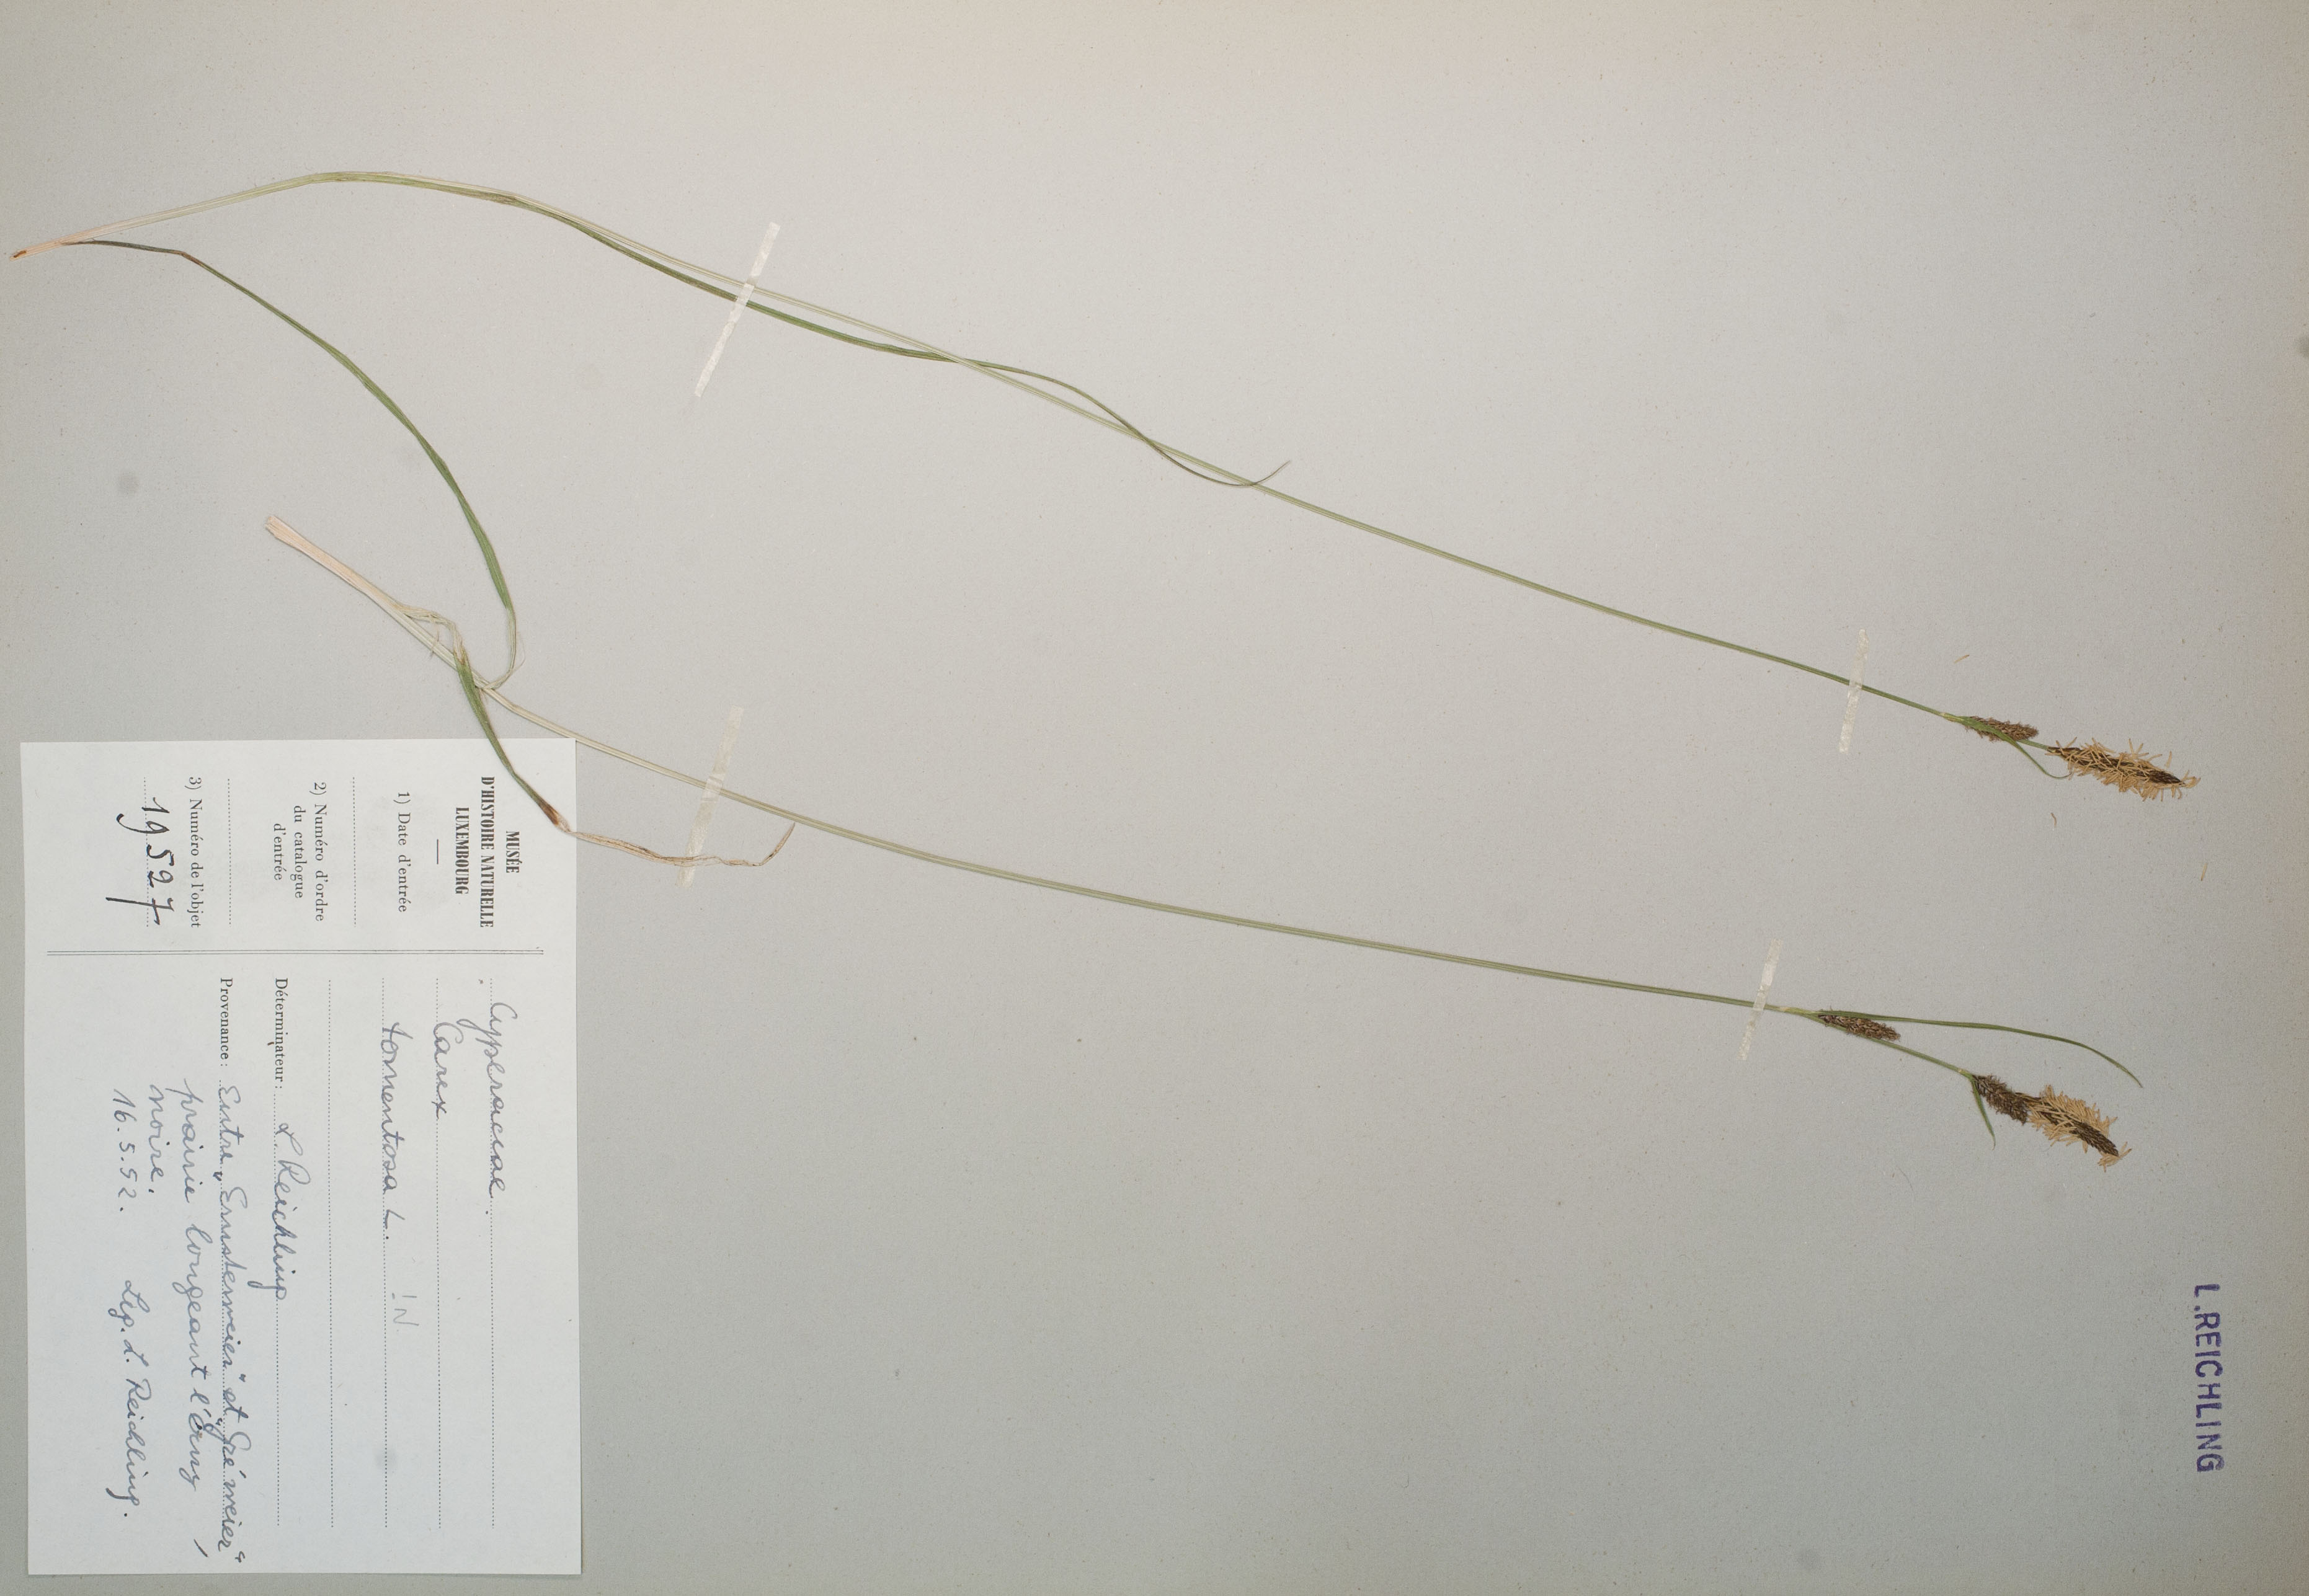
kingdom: Plantae
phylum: Tracheophyta
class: Liliopsida
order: Poales
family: Cyperaceae
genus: Carex
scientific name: Carex tomentosa
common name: Downy-fruited sedge
